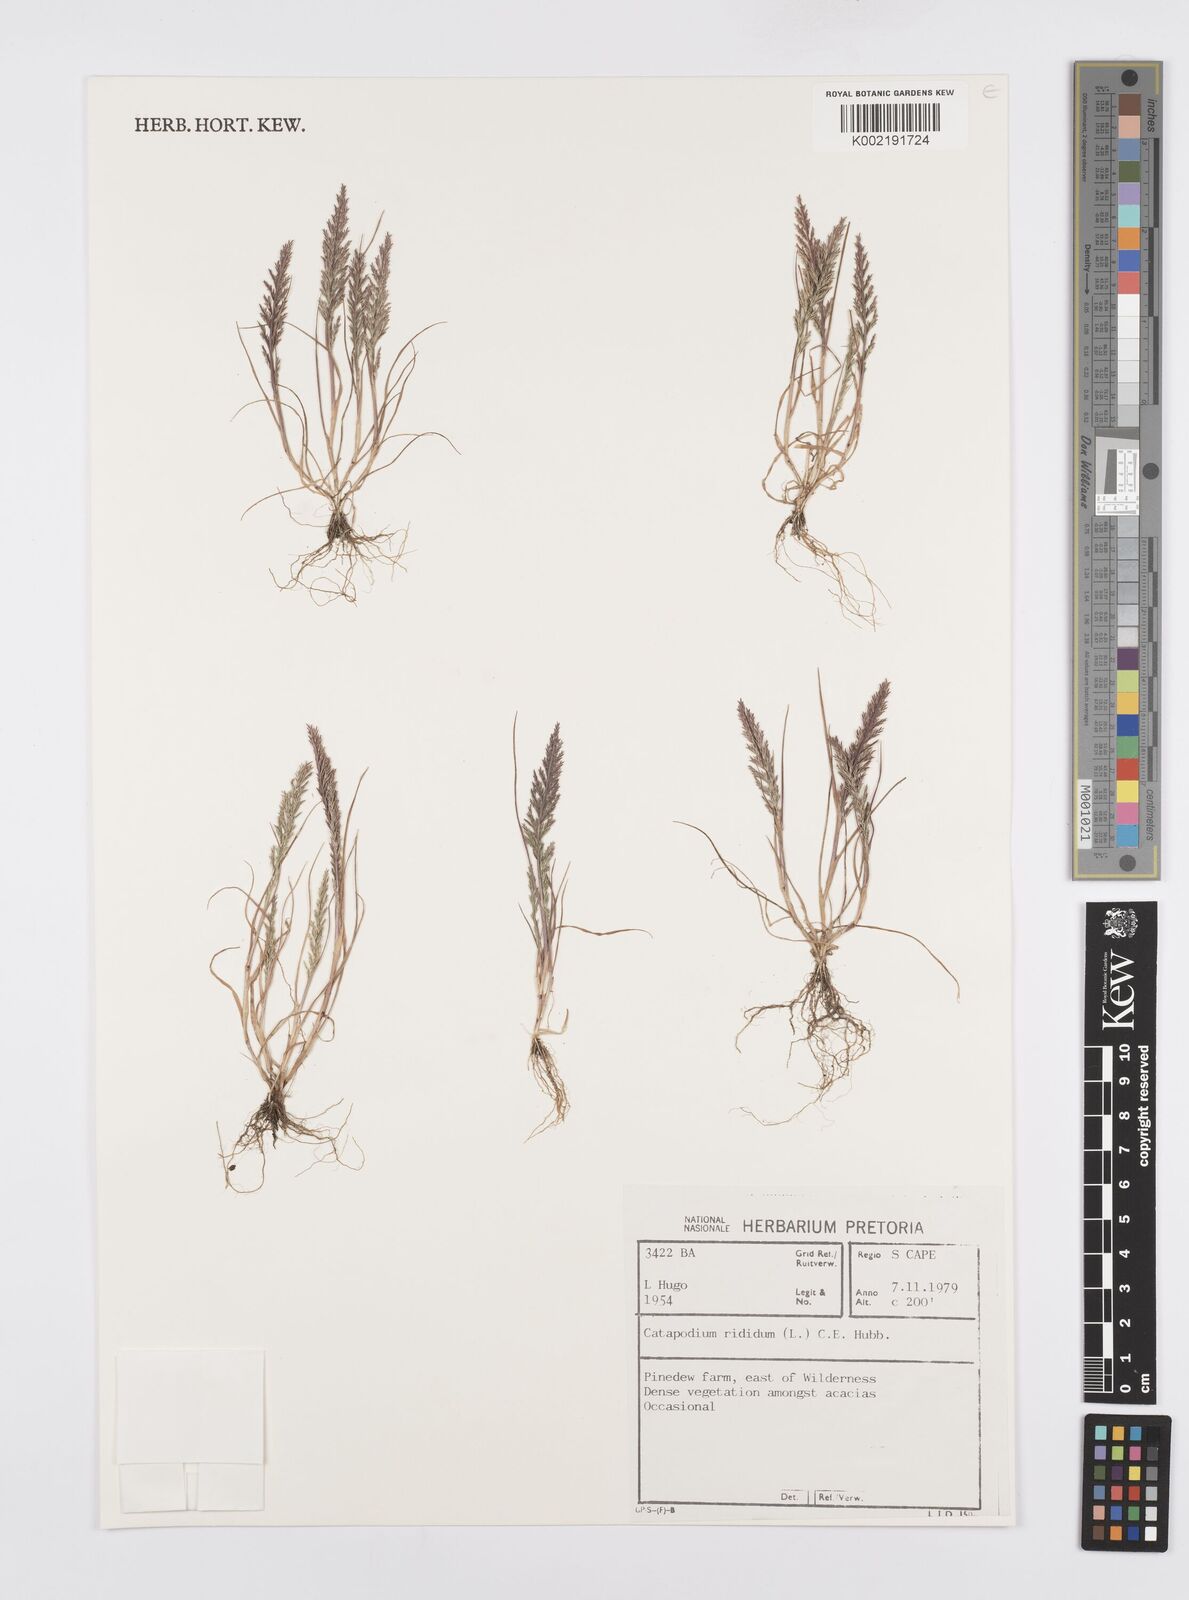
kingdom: Plantae
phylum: Tracheophyta
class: Liliopsida
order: Poales
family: Poaceae
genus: Catapodium
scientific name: Catapodium rigidum
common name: Fern-grass
